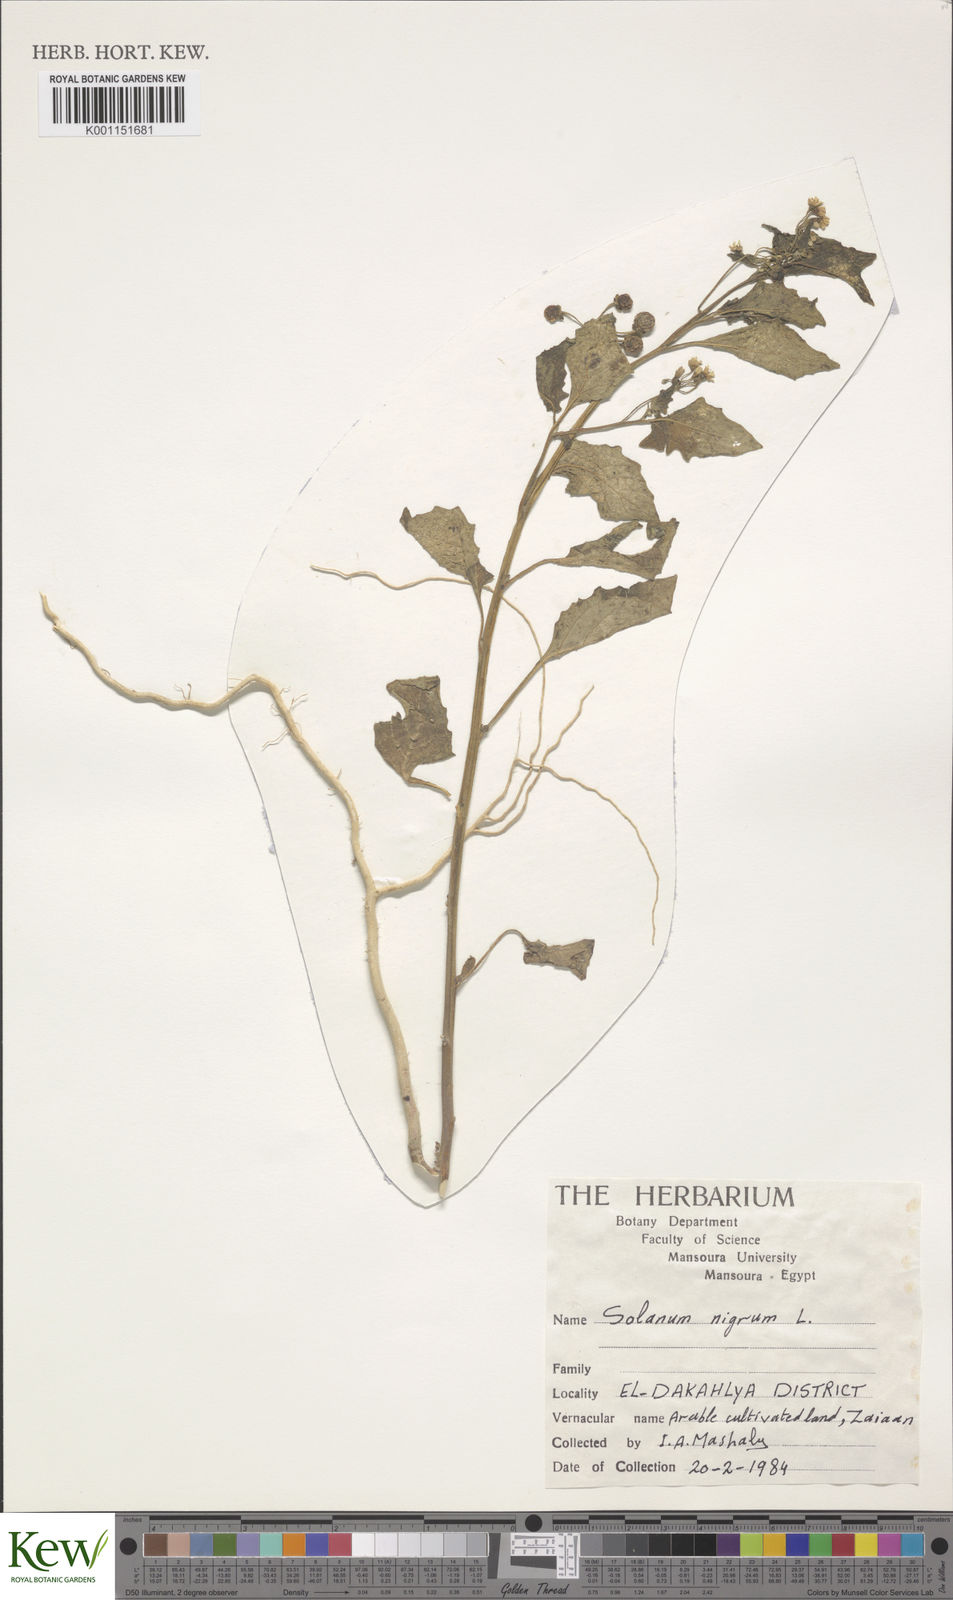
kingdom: Plantae
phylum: Tracheophyta
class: Magnoliopsida
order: Solanales
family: Solanaceae
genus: Solanum
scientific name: Solanum nigrum
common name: Black nightshade
